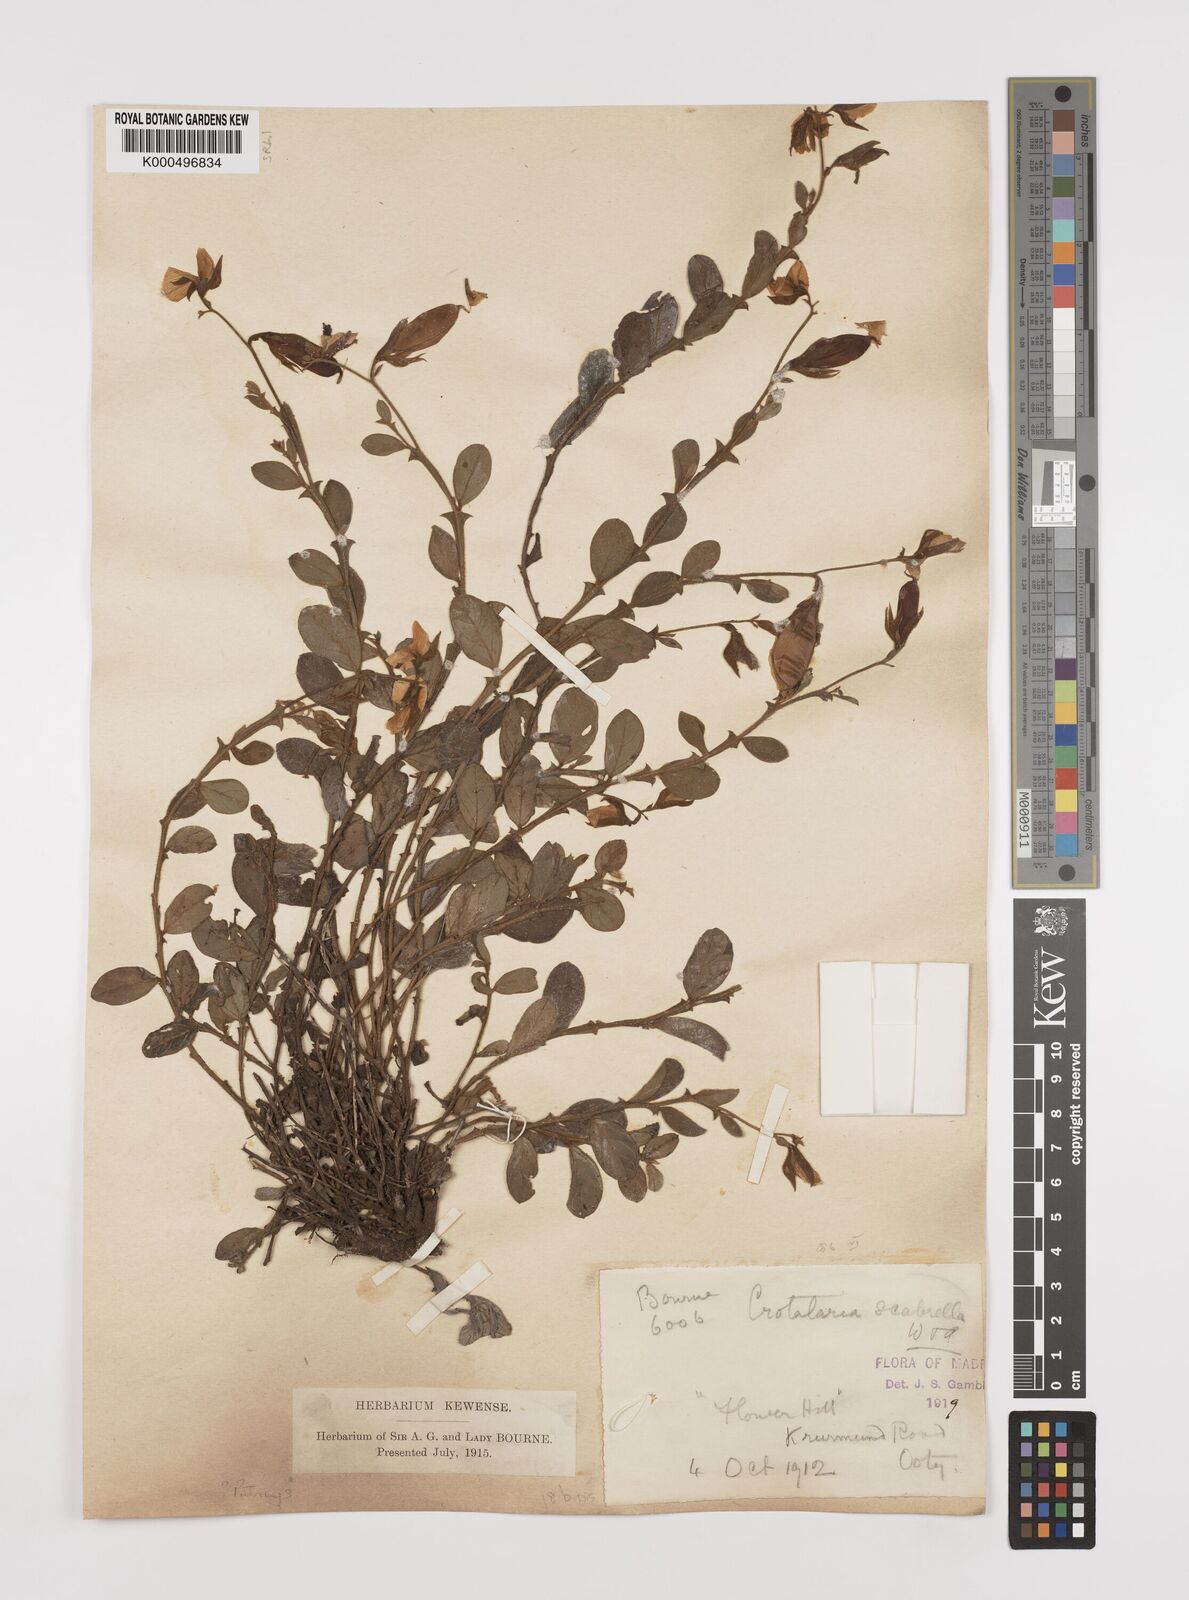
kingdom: Plantae
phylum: Tracheophyta
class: Magnoliopsida
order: Fabales
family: Fabaceae
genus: Crotalaria
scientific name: Crotalaria scabrella
